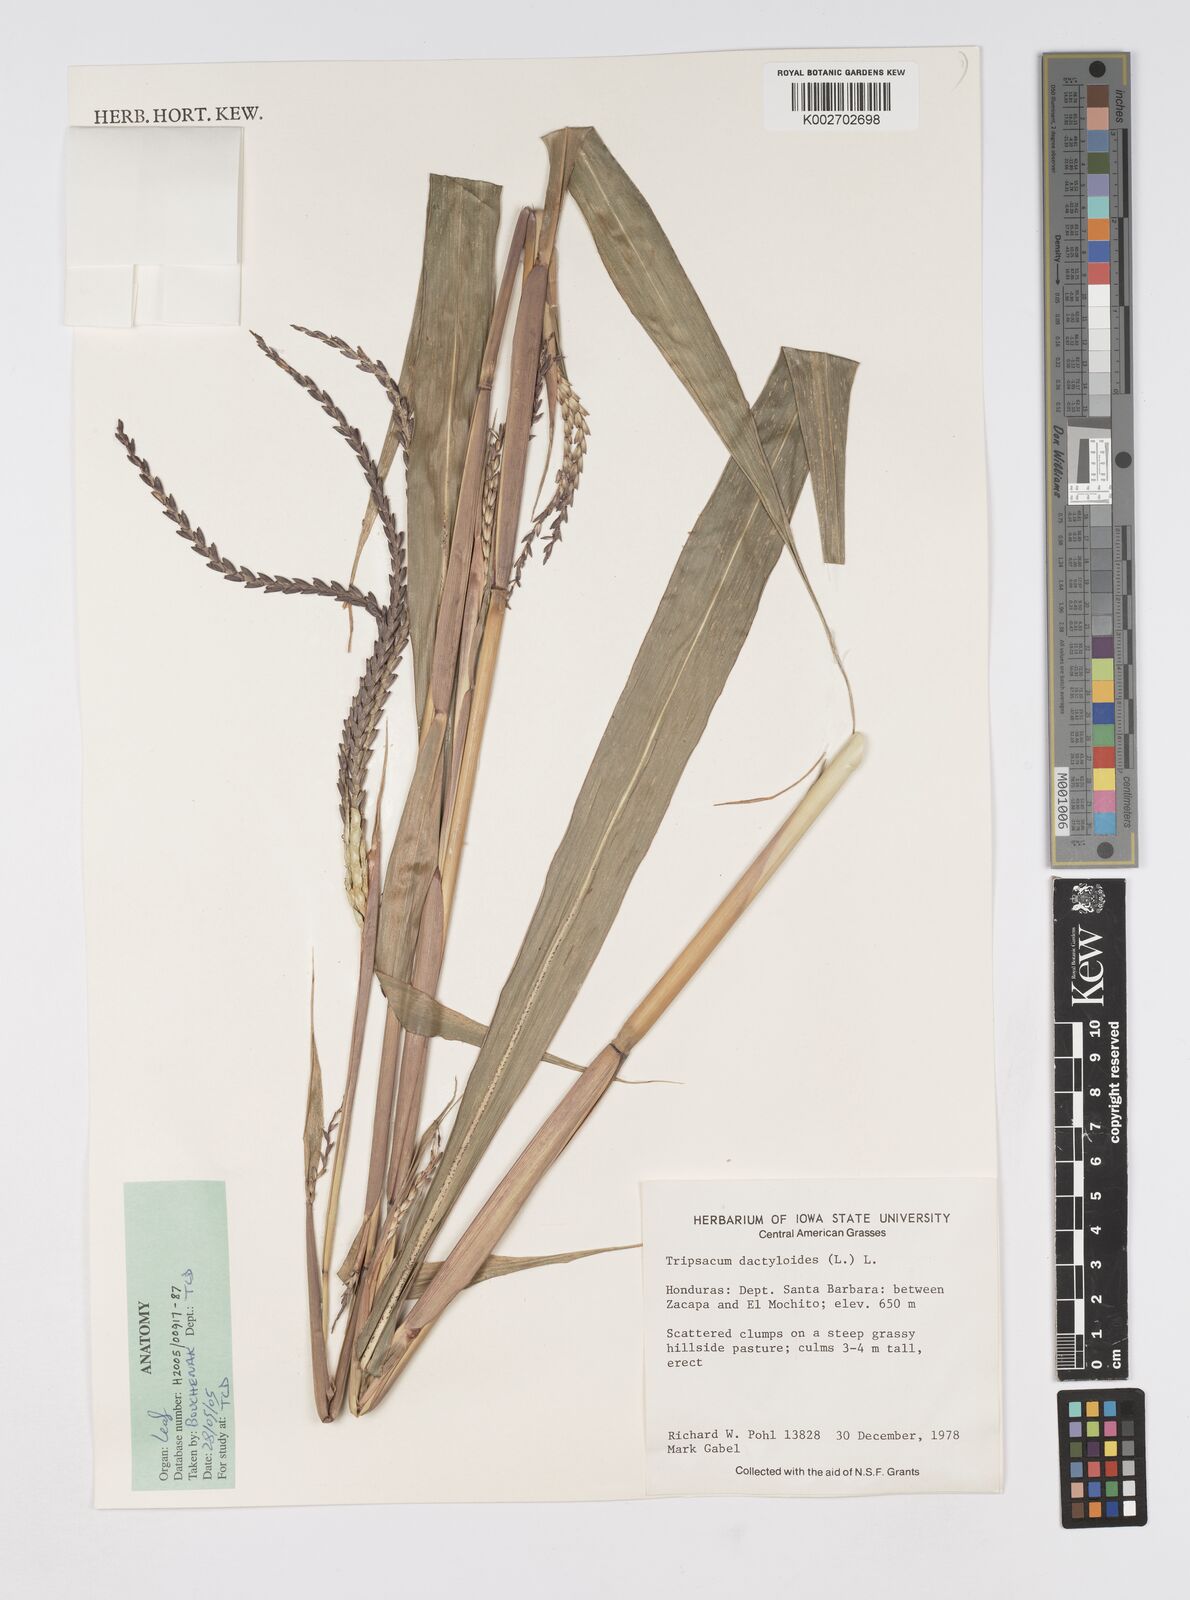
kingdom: Plantae
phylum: Tracheophyta
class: Liliopsida
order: Poales
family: Poaceae
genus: Tripsacum
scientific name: Tripsacum dactyloides
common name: Buffalo-grass
